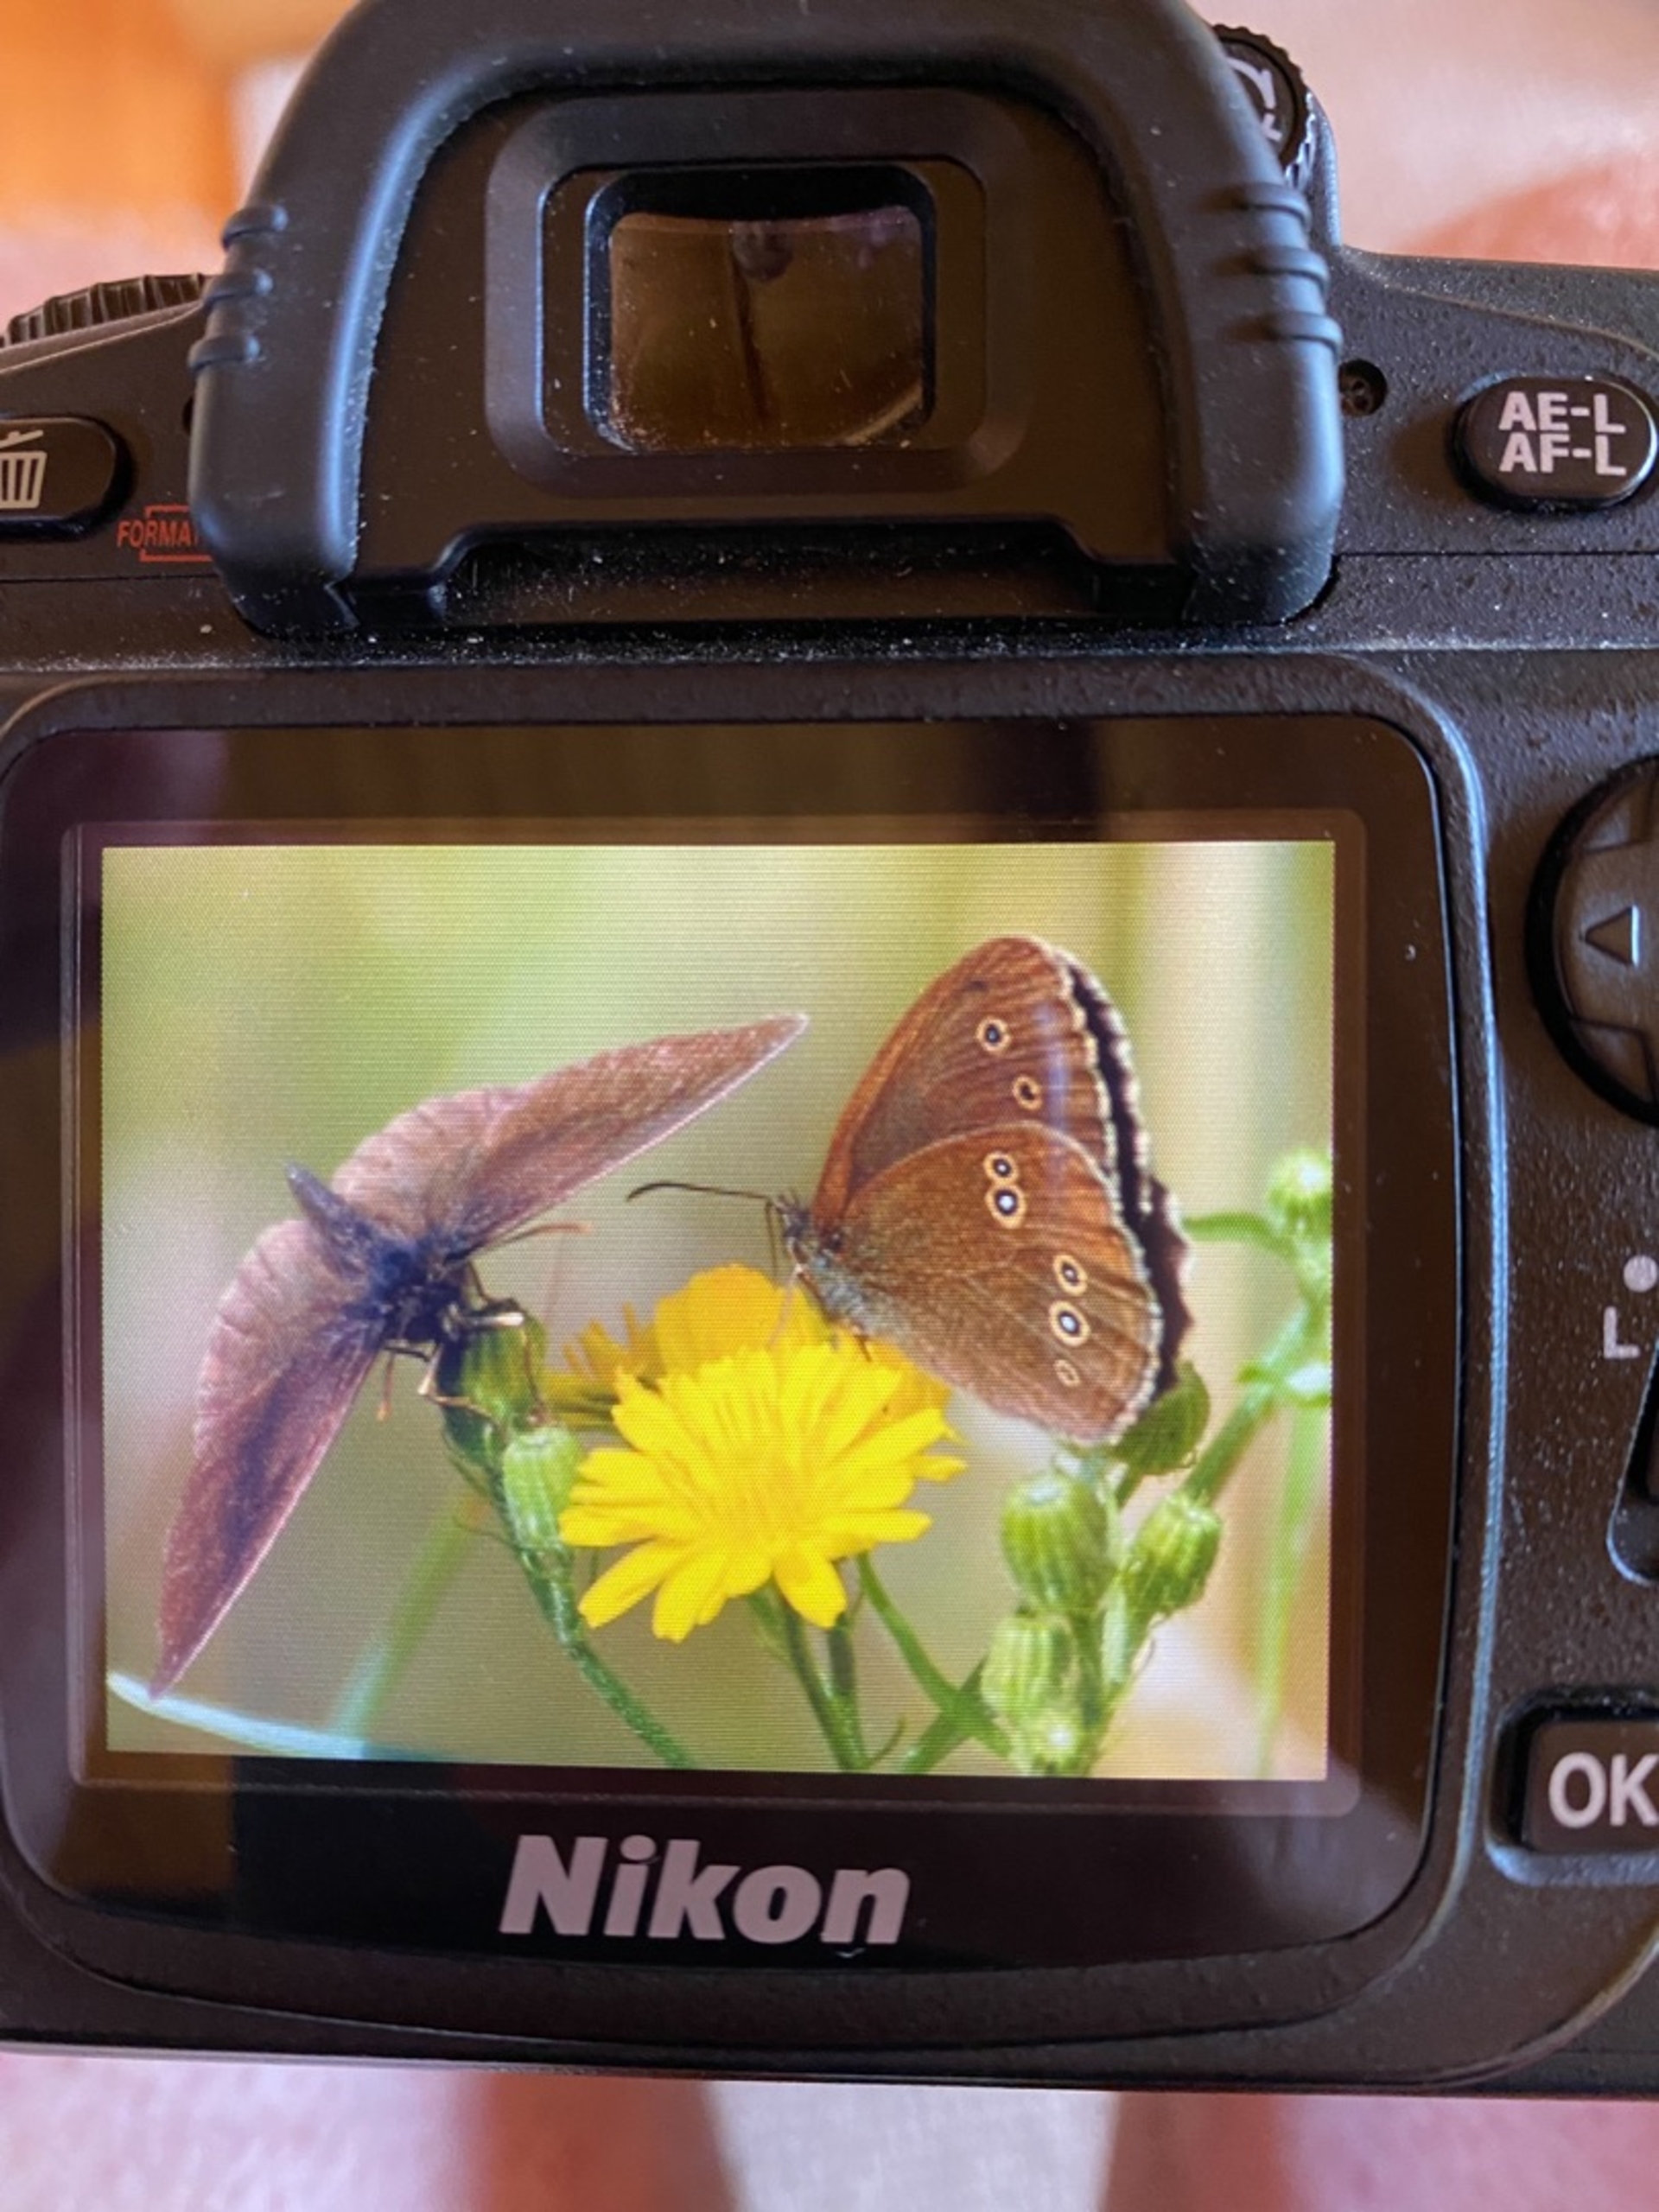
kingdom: Animalia
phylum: Arthropoda
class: Insecta
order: Lepidoptera
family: Nymphalidae
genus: Aphantopus
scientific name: Aphantopus hyperantus
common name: Engrandøje
